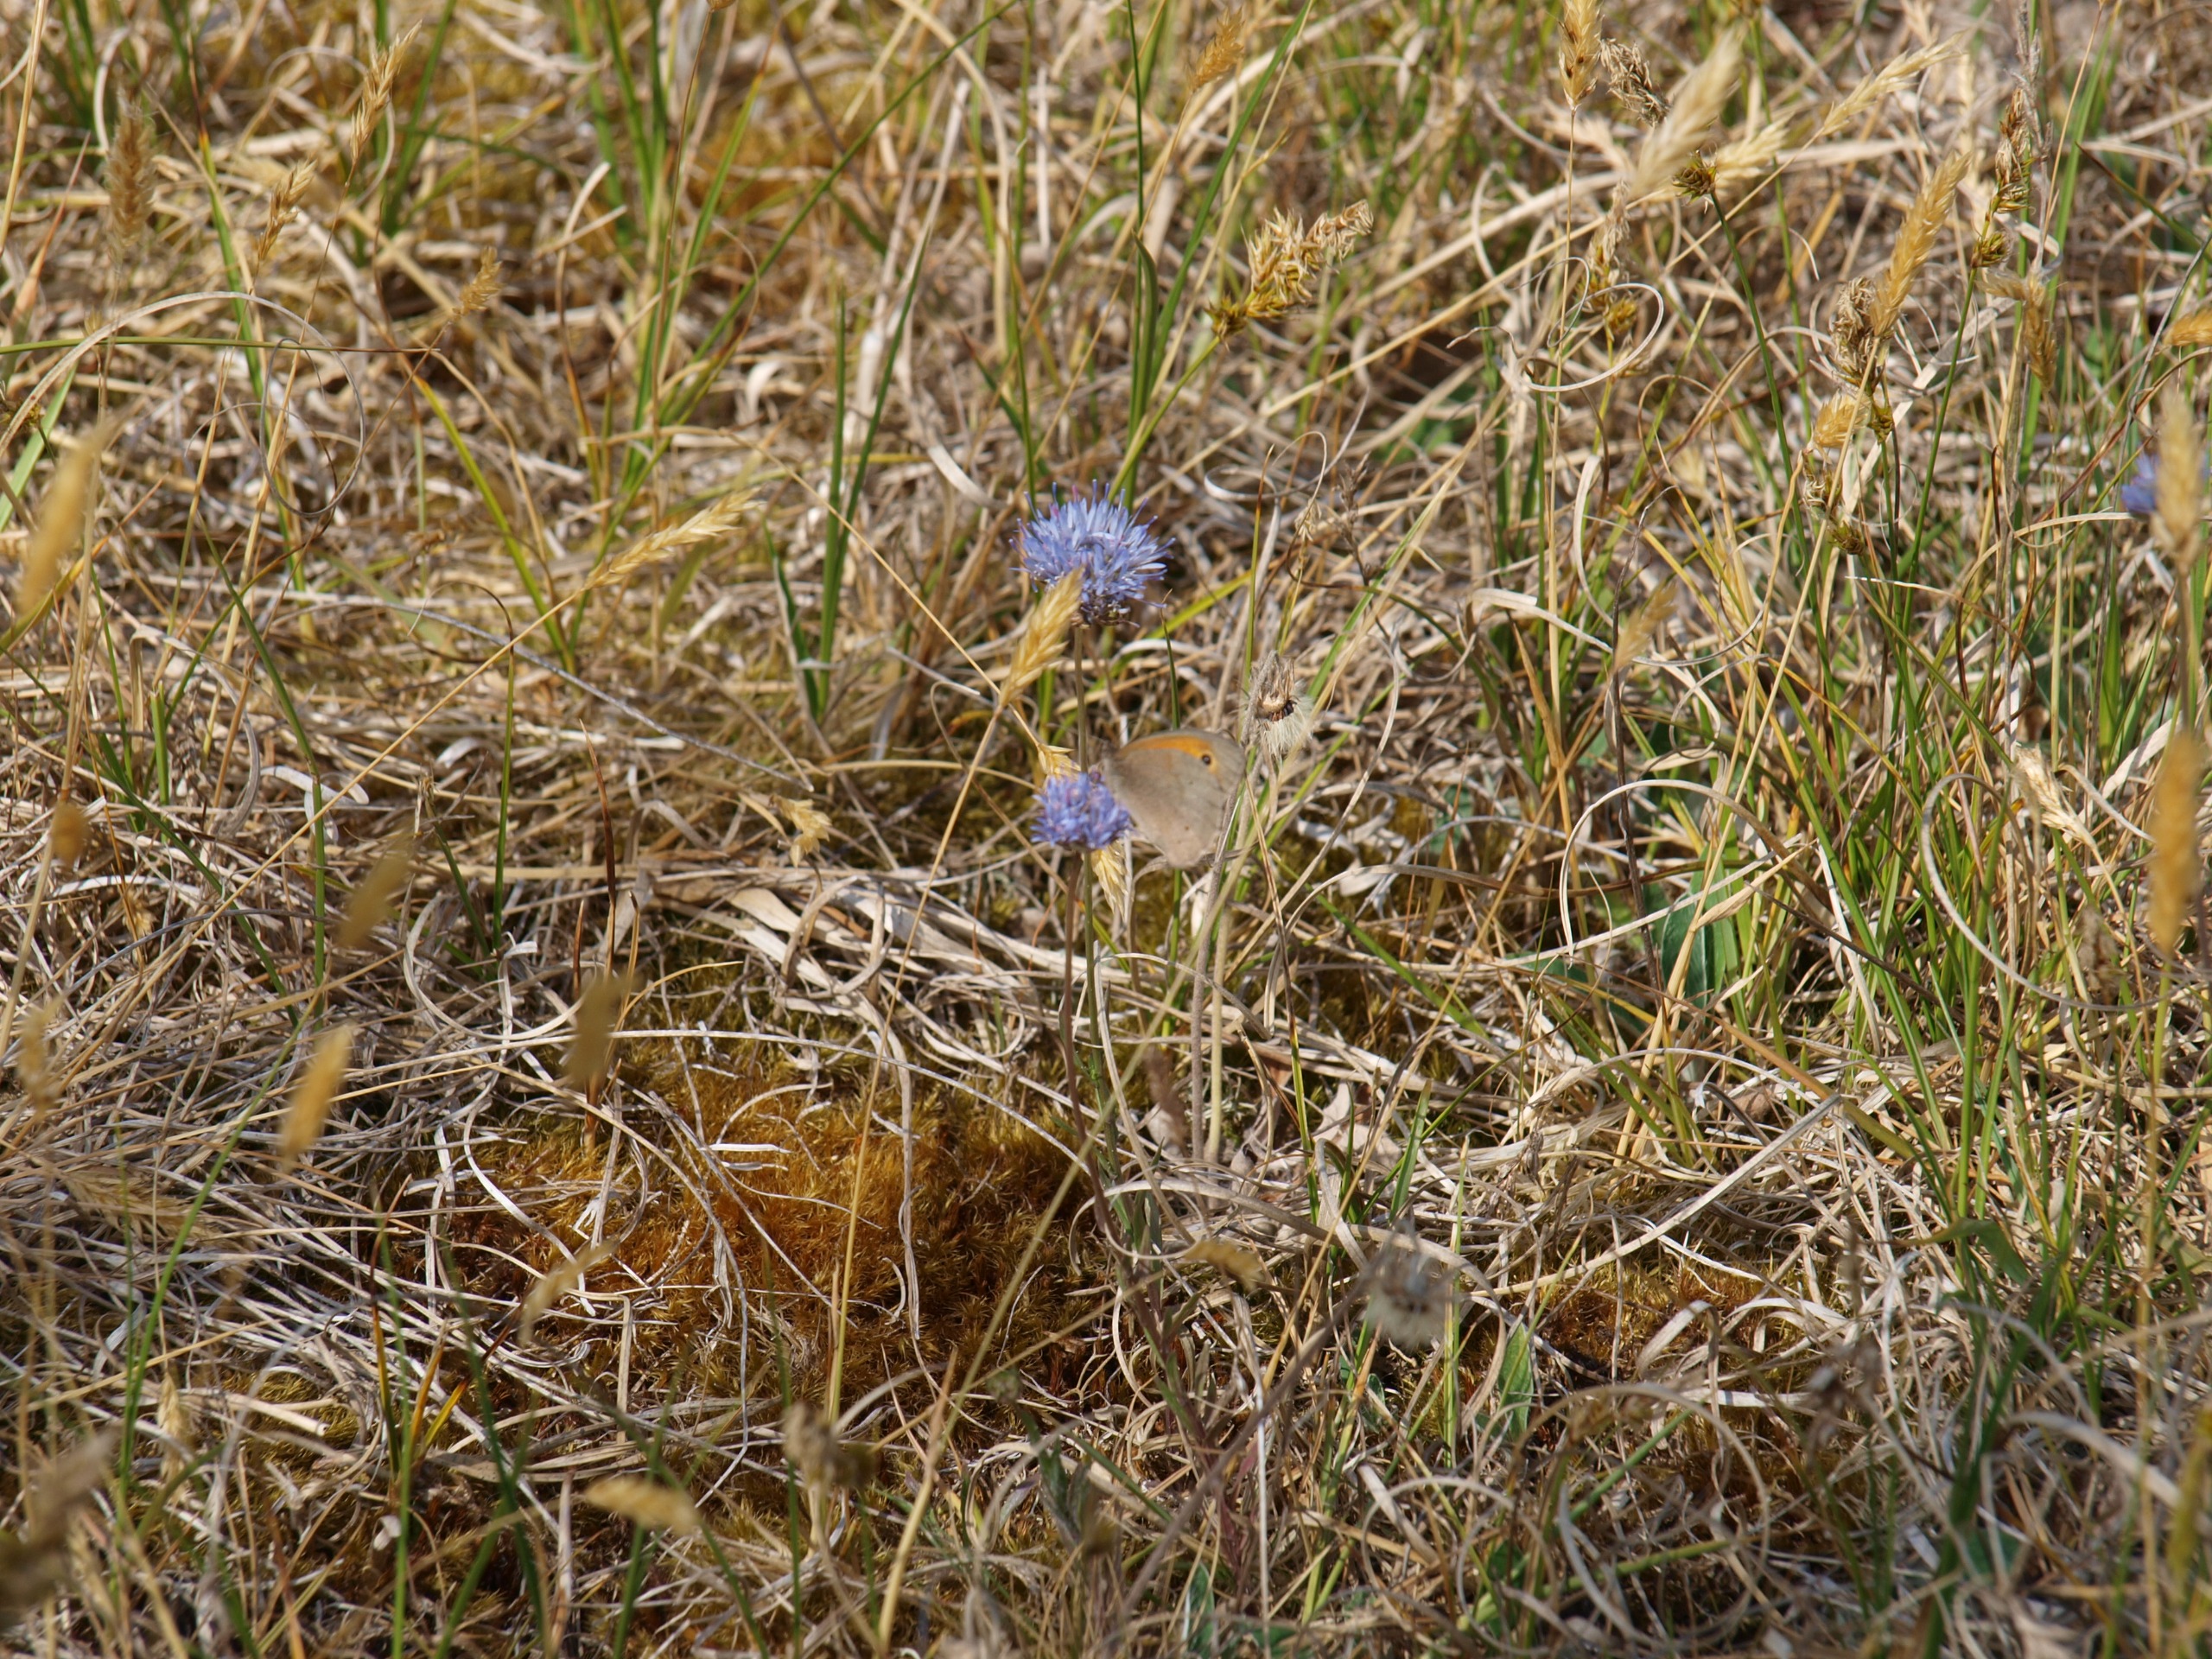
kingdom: Animalia
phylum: Arthropoda
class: Insecta
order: Lepidoptera
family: Nymphalidae
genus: Maniola
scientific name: Maniola jurtina
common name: Græsrandøje
